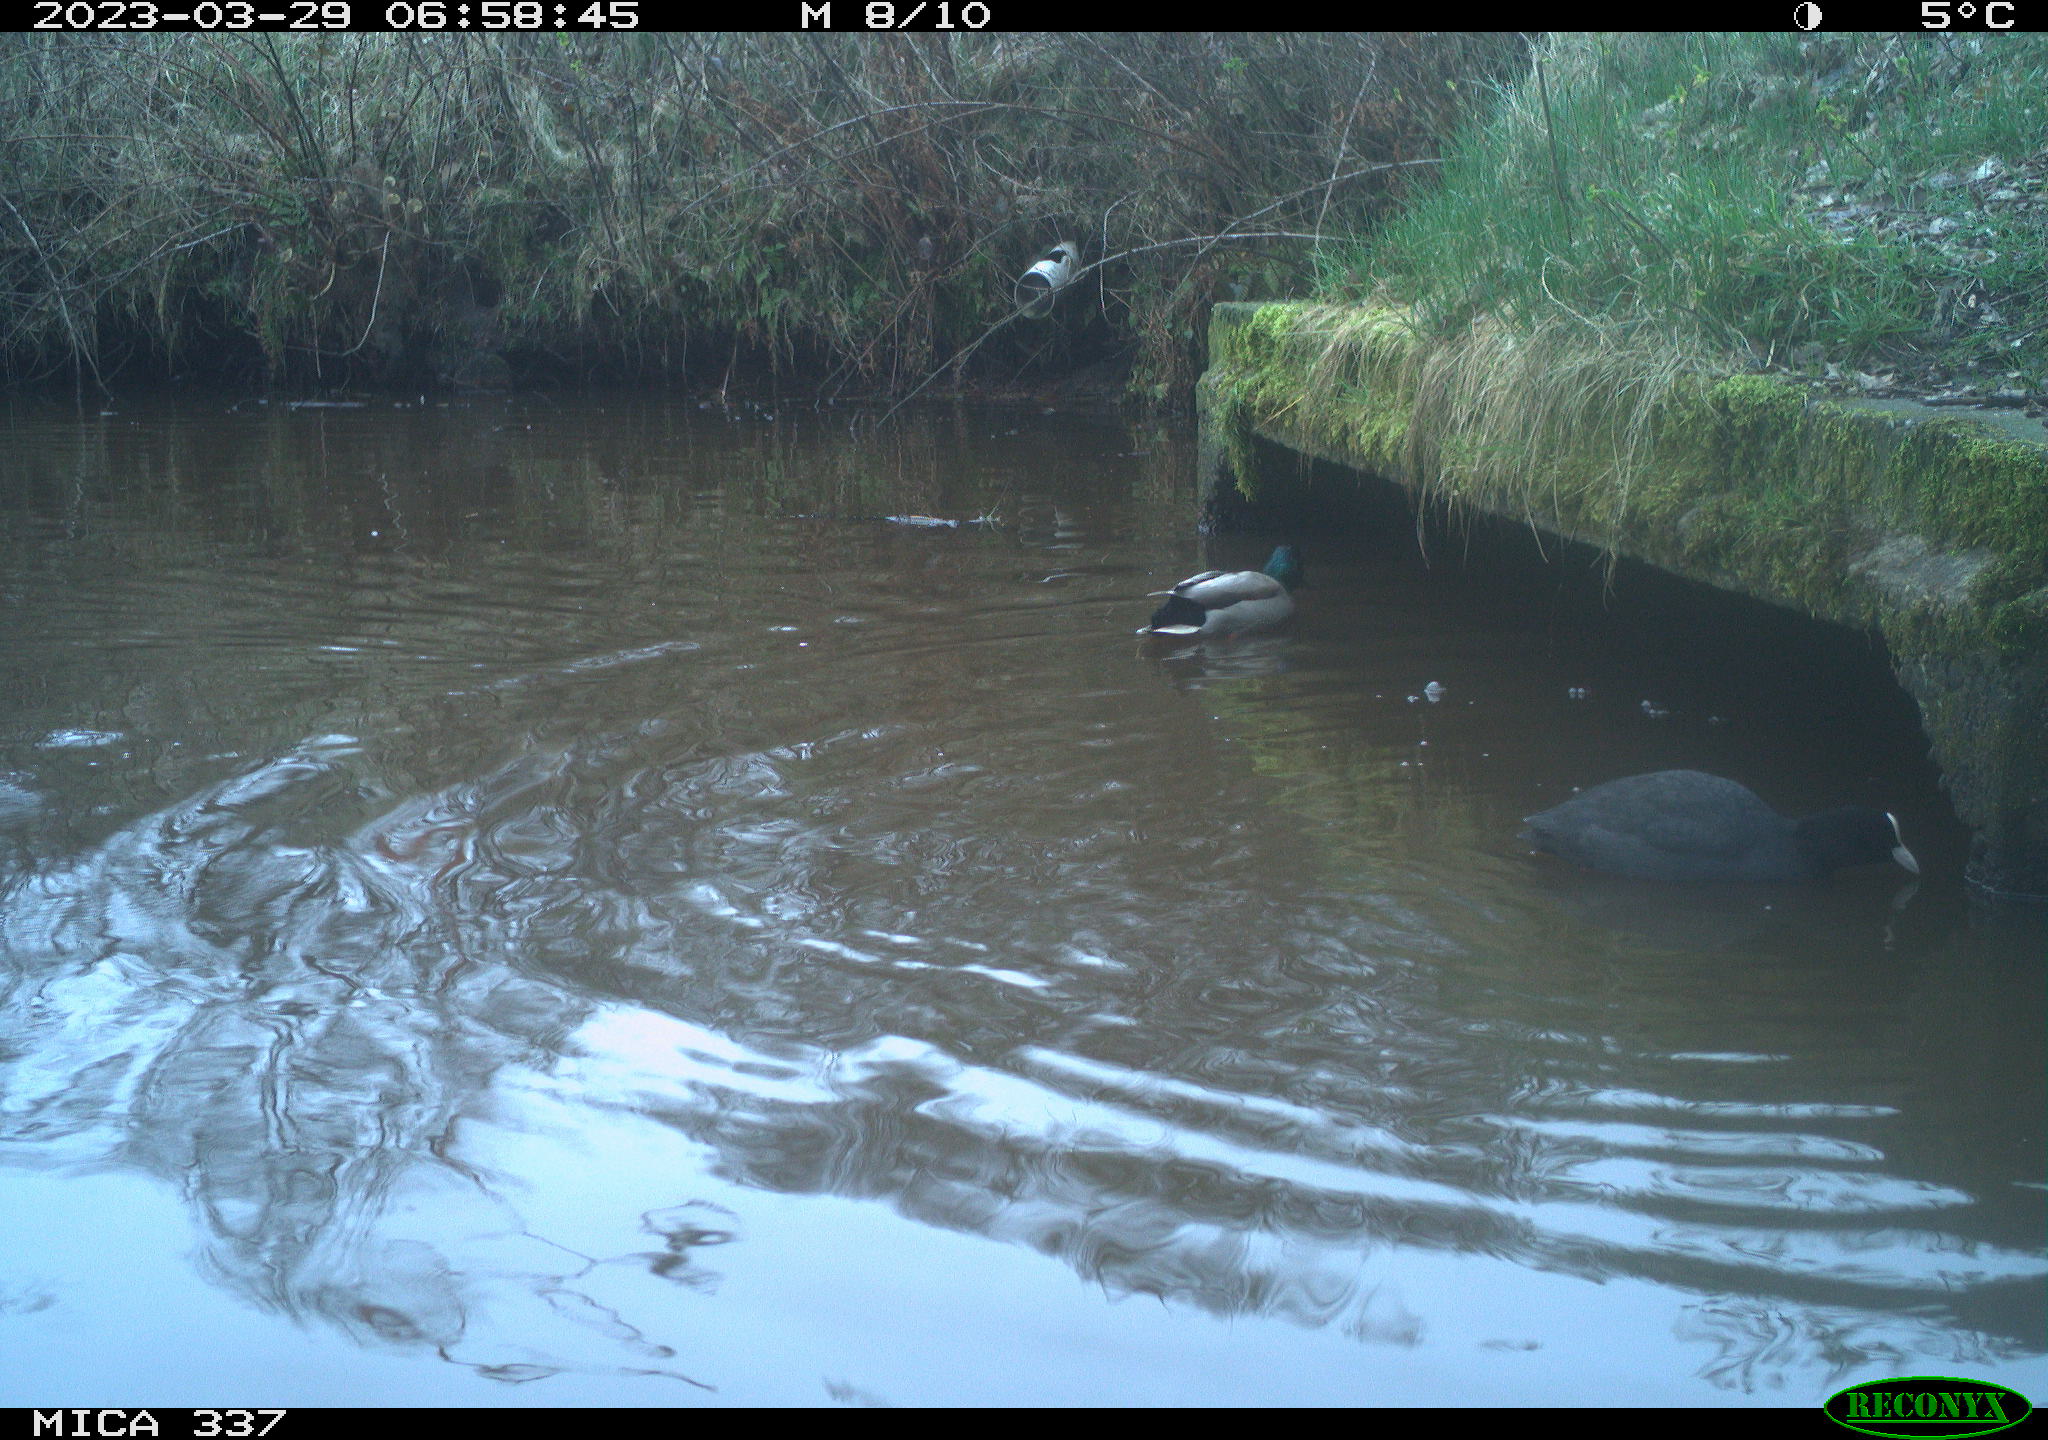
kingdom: Animalia
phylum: Chordata
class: Aves
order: Gruiformes
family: Rallidae
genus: Fulica
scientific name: Fulica atra
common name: Eurasian coot
